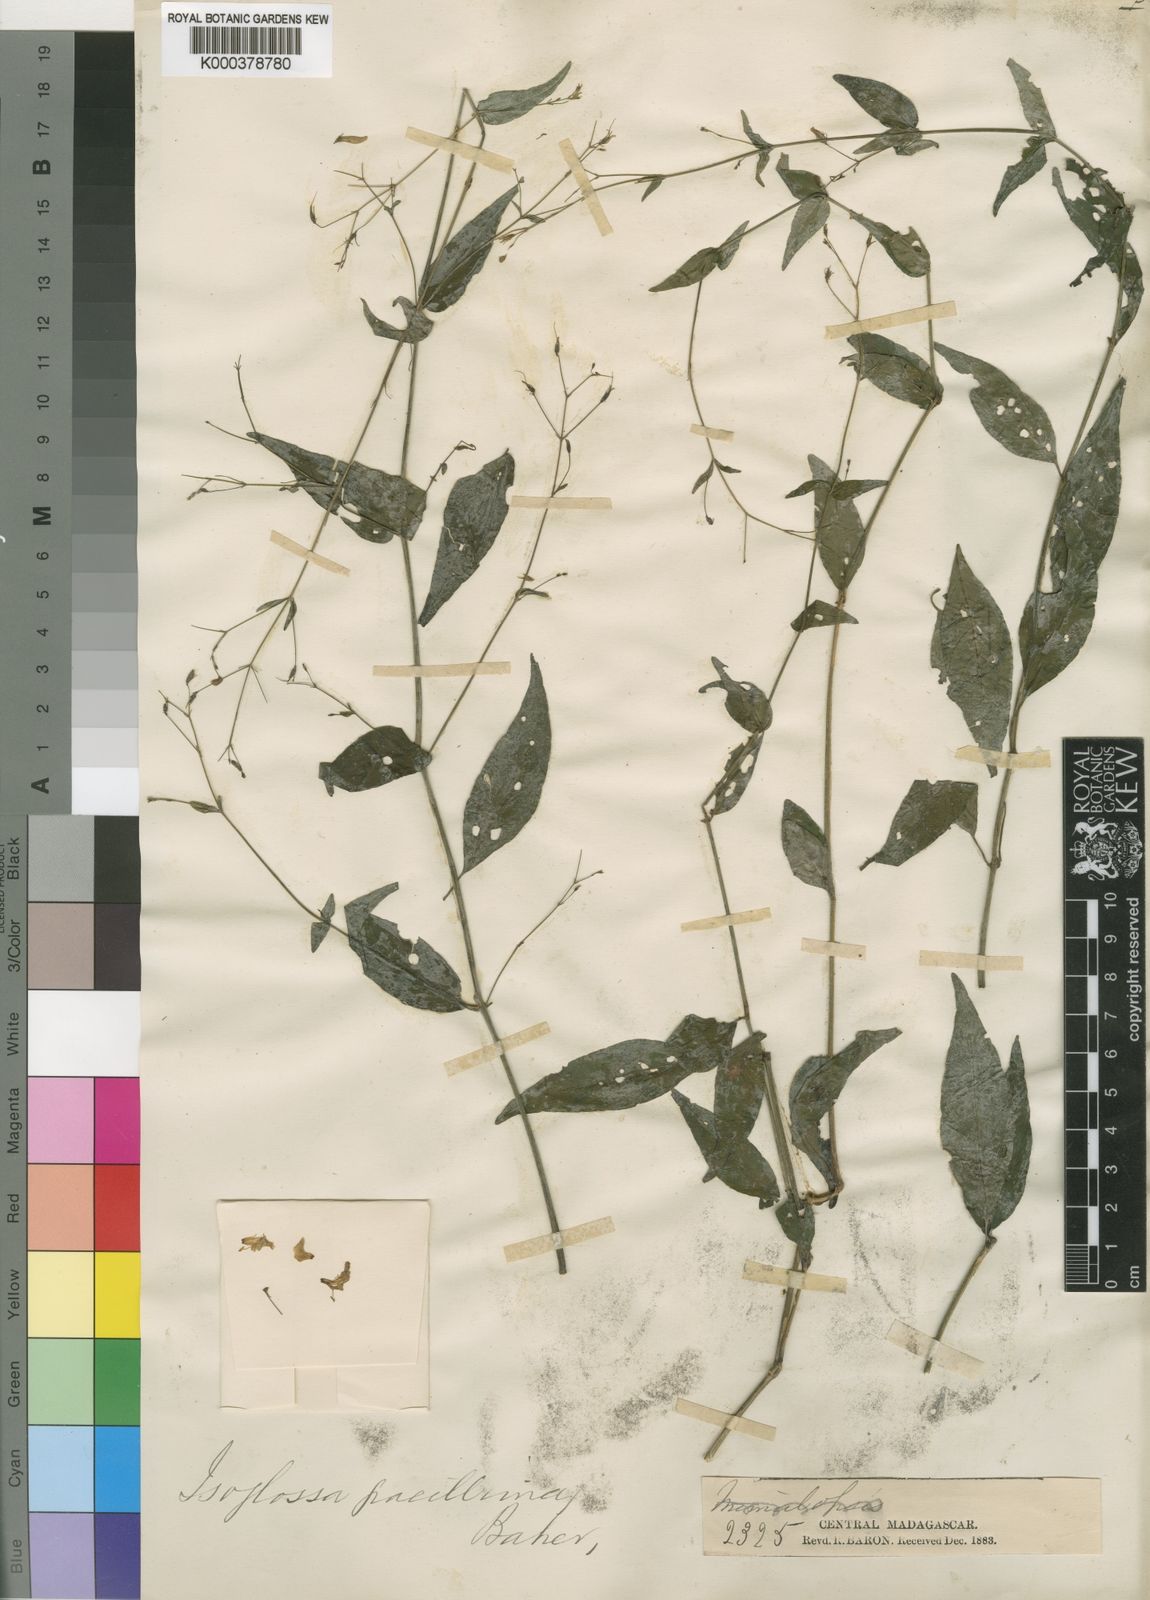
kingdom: Plantae
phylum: Tracheophyta
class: Magnoliopsida
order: Lamiales
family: Acanthaceae
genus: Isoglossa
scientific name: Isoglossa gracillima
